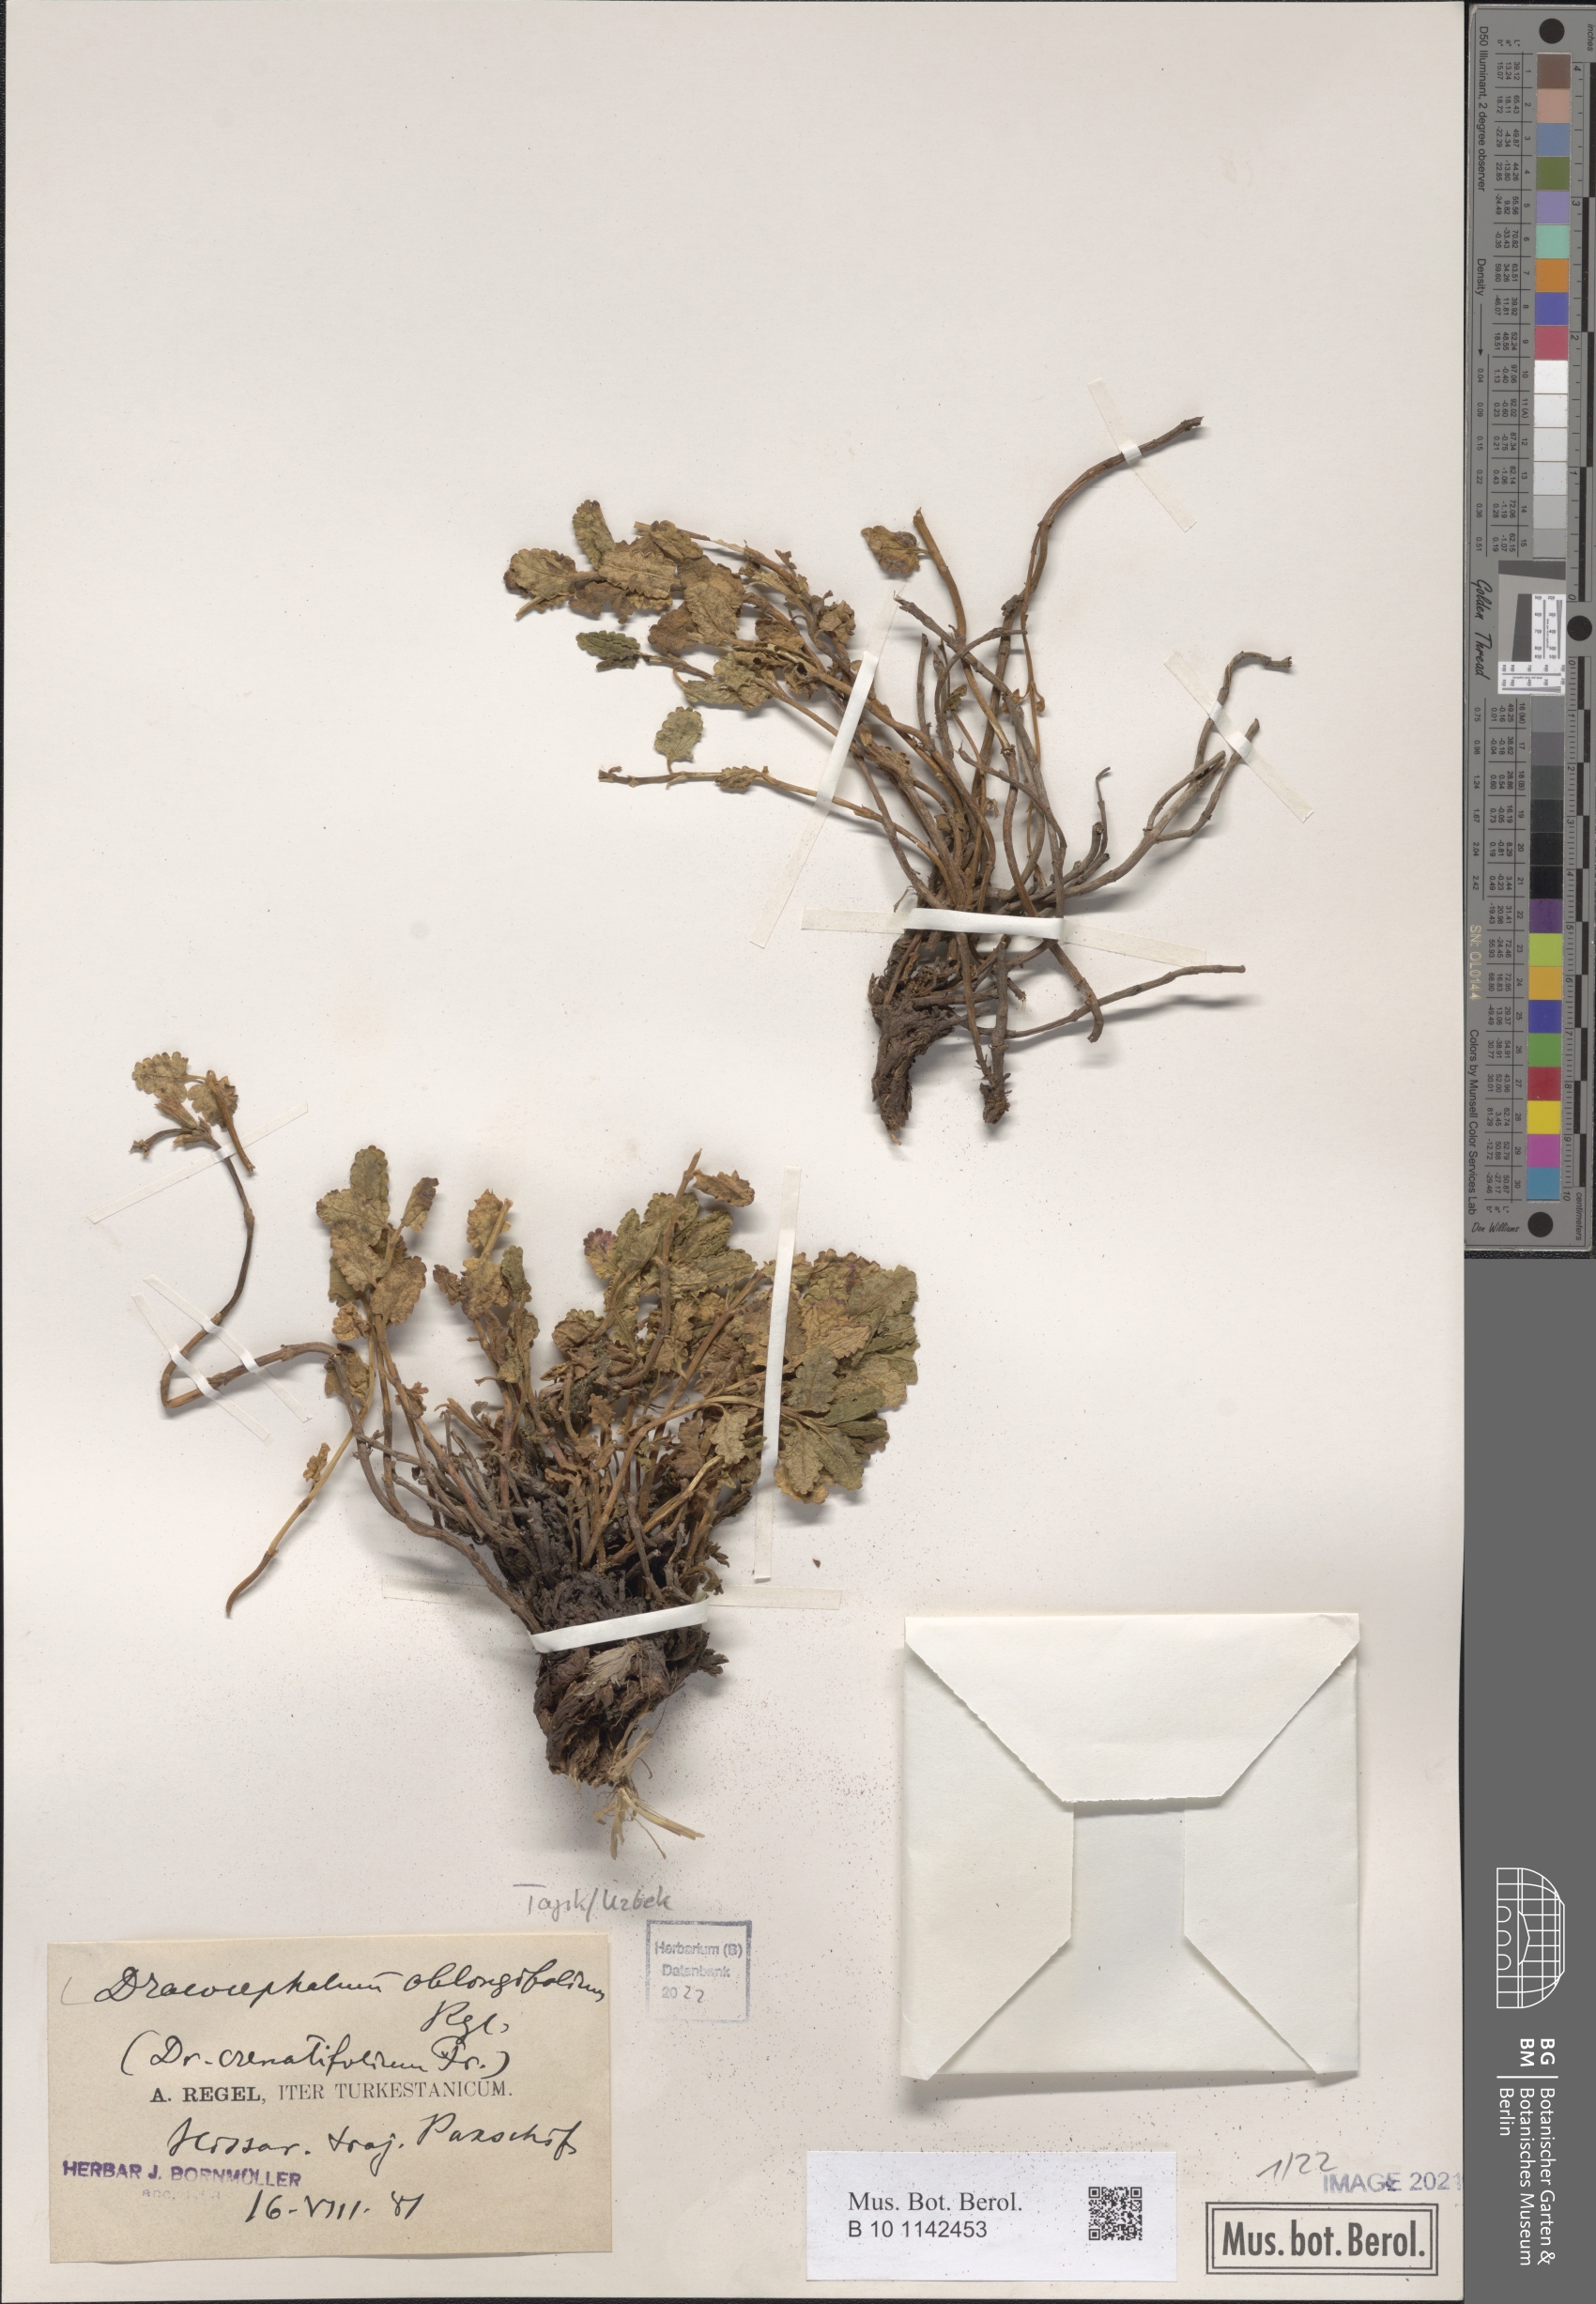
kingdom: Plantae
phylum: Tracheophyta
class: Magnoliopsida
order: Lamiales
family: Lamiaceae
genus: Dracocephalum
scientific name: Dracocephalum oblongifolium
